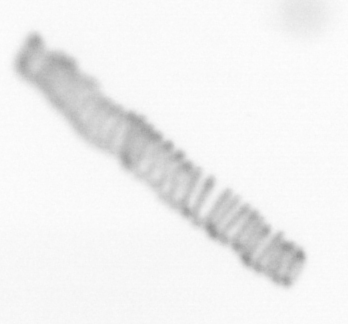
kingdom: Chromista
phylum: Ochrophyta
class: Bacillariophyceae
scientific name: Bacillariophyceae
